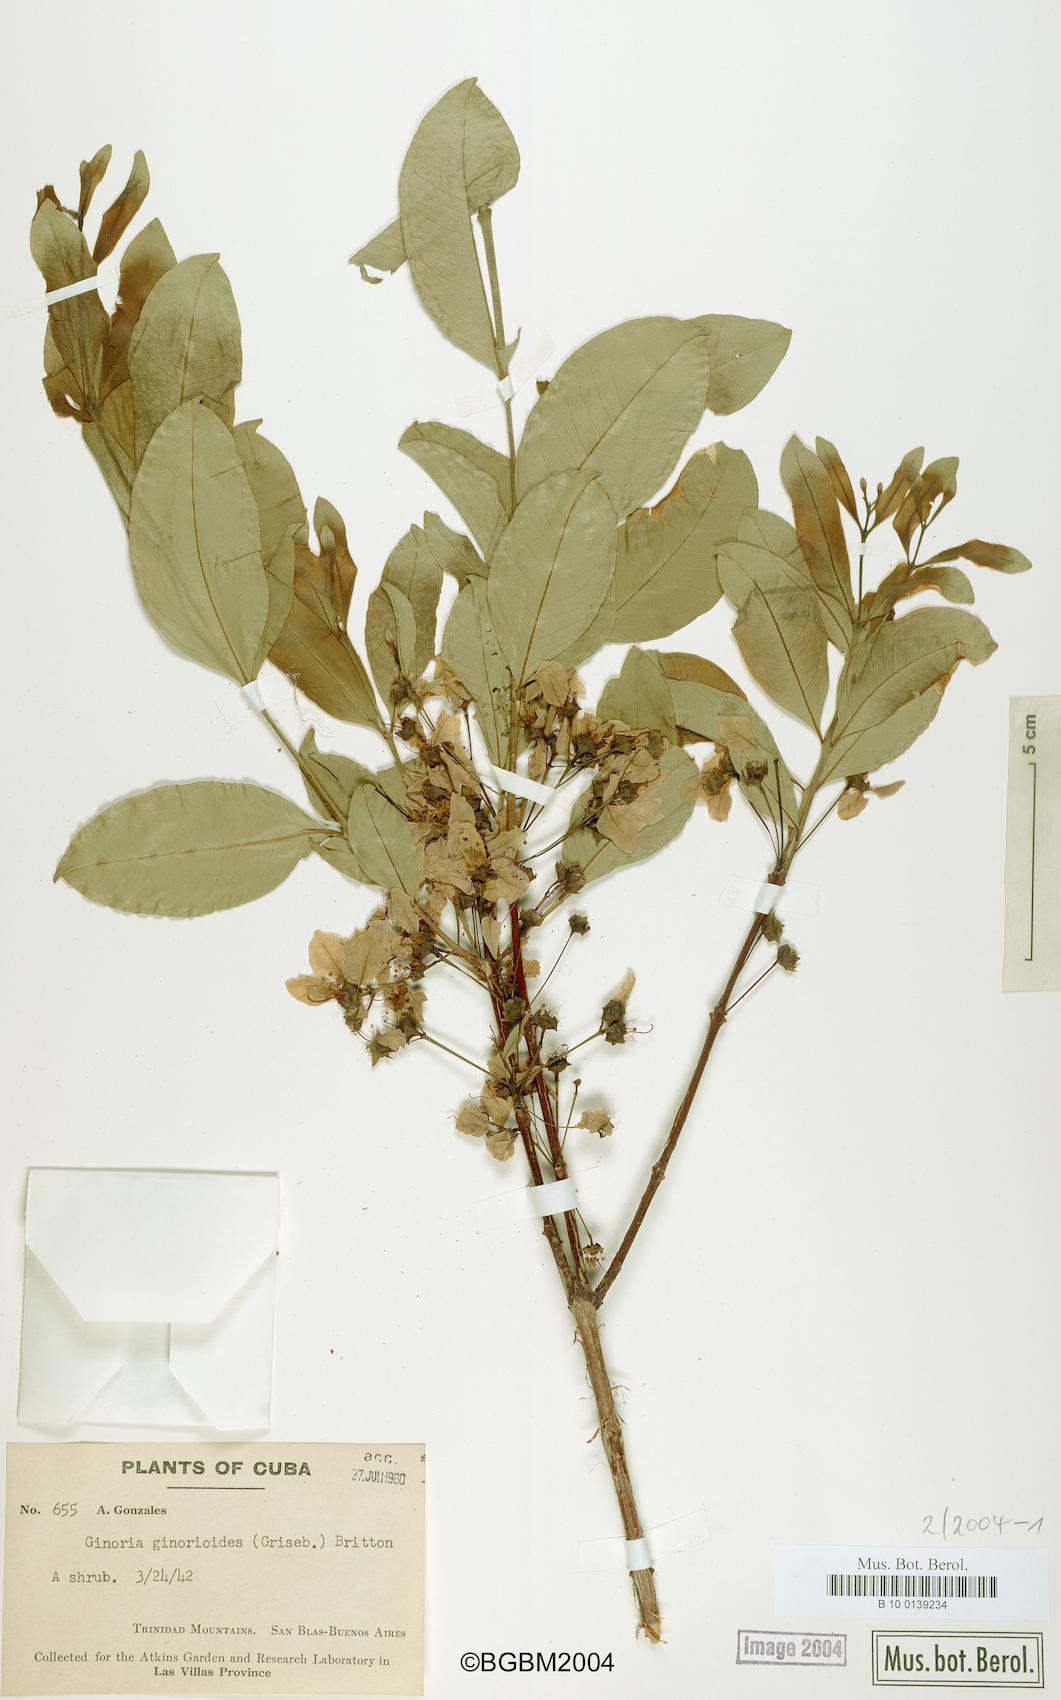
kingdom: Plantae
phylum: Tracheophyta
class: Magnoliopsida
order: Myrtales
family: Lythraceae
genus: Ginoria
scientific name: Ginoria ginorioides
